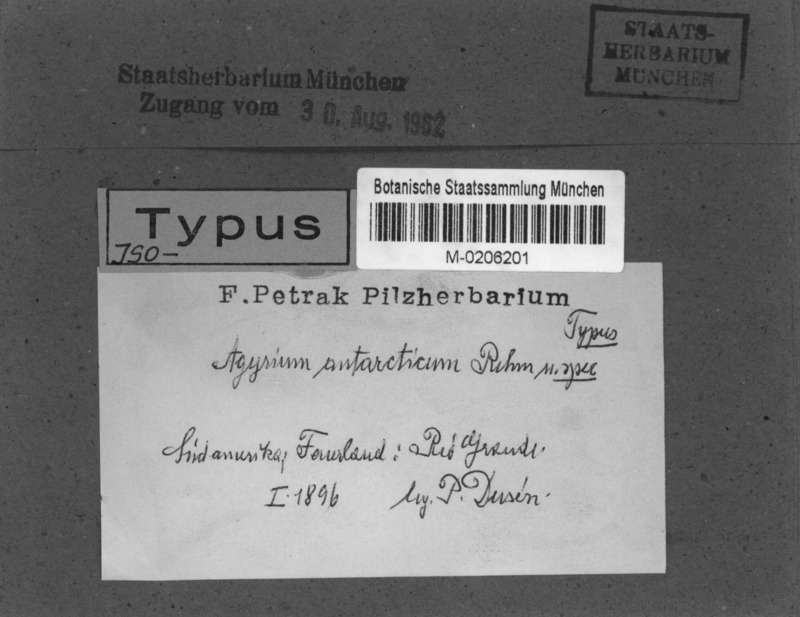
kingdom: Fungi
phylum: Ascomycota
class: Lecanoromycetes
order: Pertusariales
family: Agyriaceae
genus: Agyrium
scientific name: Agyrium antarcticum
